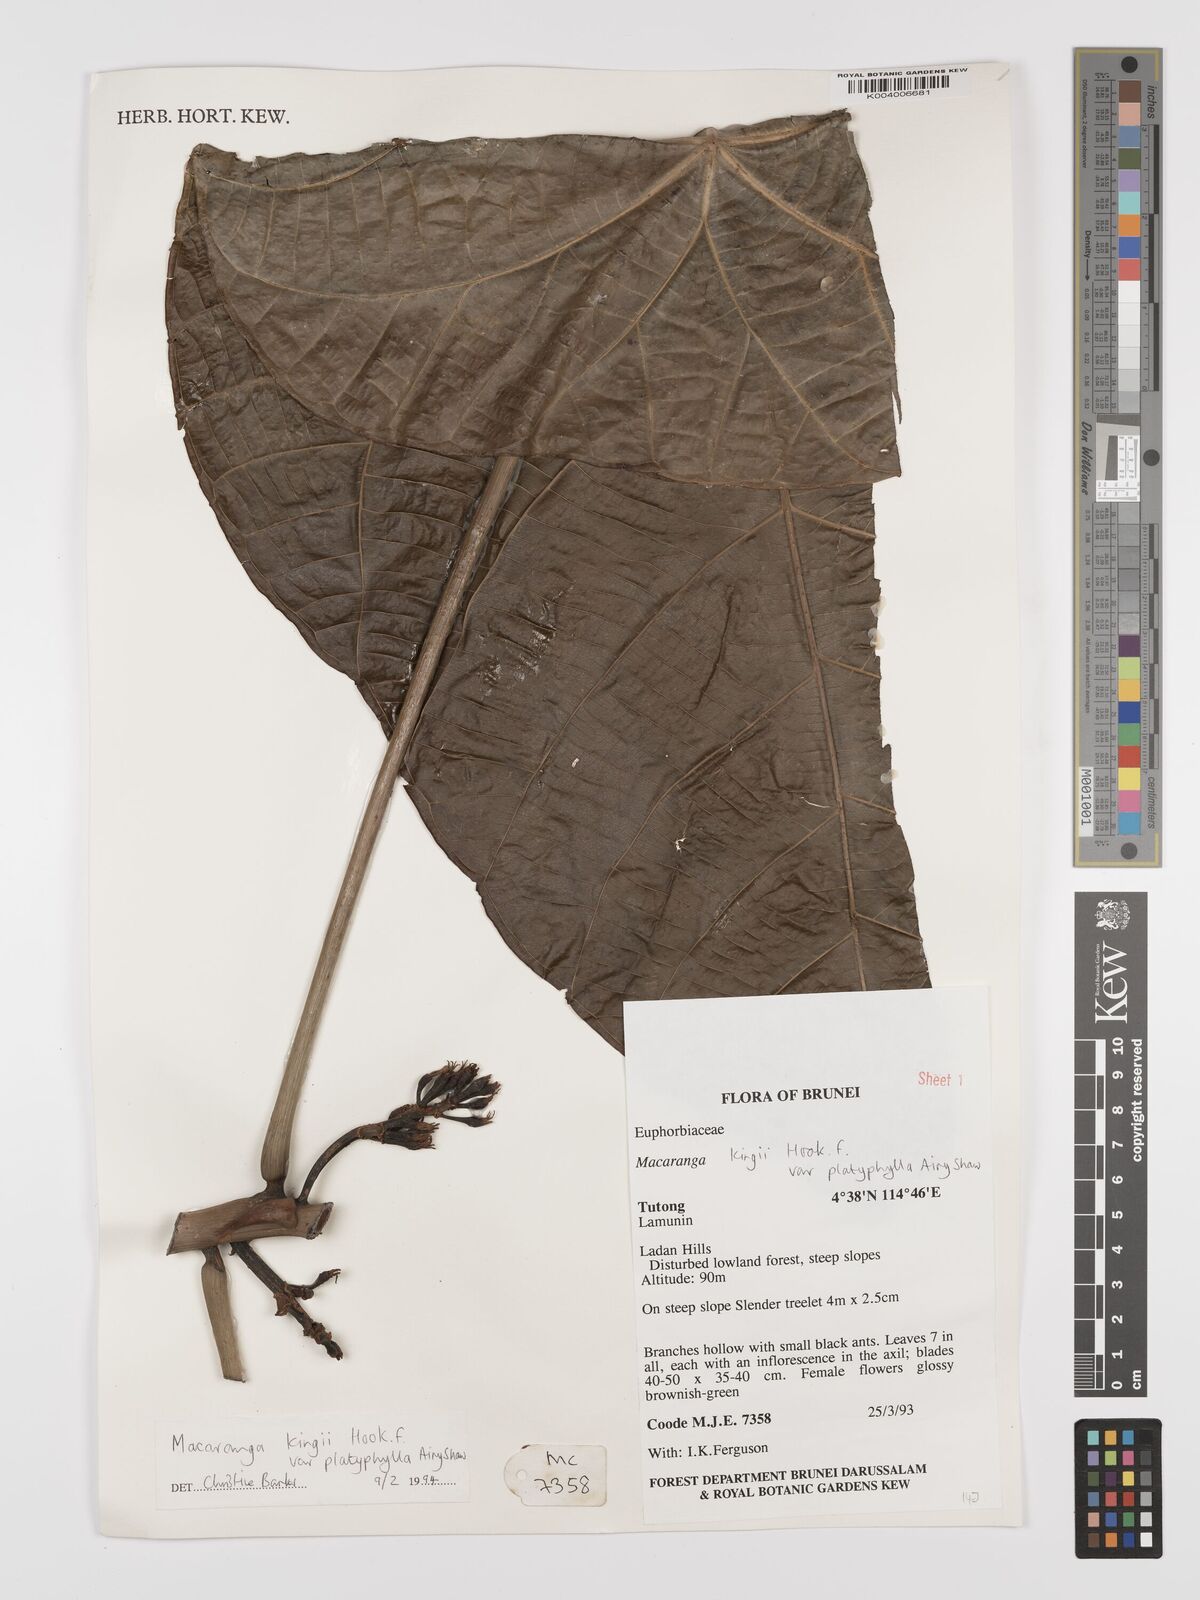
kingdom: Plantae
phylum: Tracheophyta
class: Magnoliopsida
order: Malpighiales
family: Euphorbiaceae
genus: Macaranga
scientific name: Macaranga umbrosa
